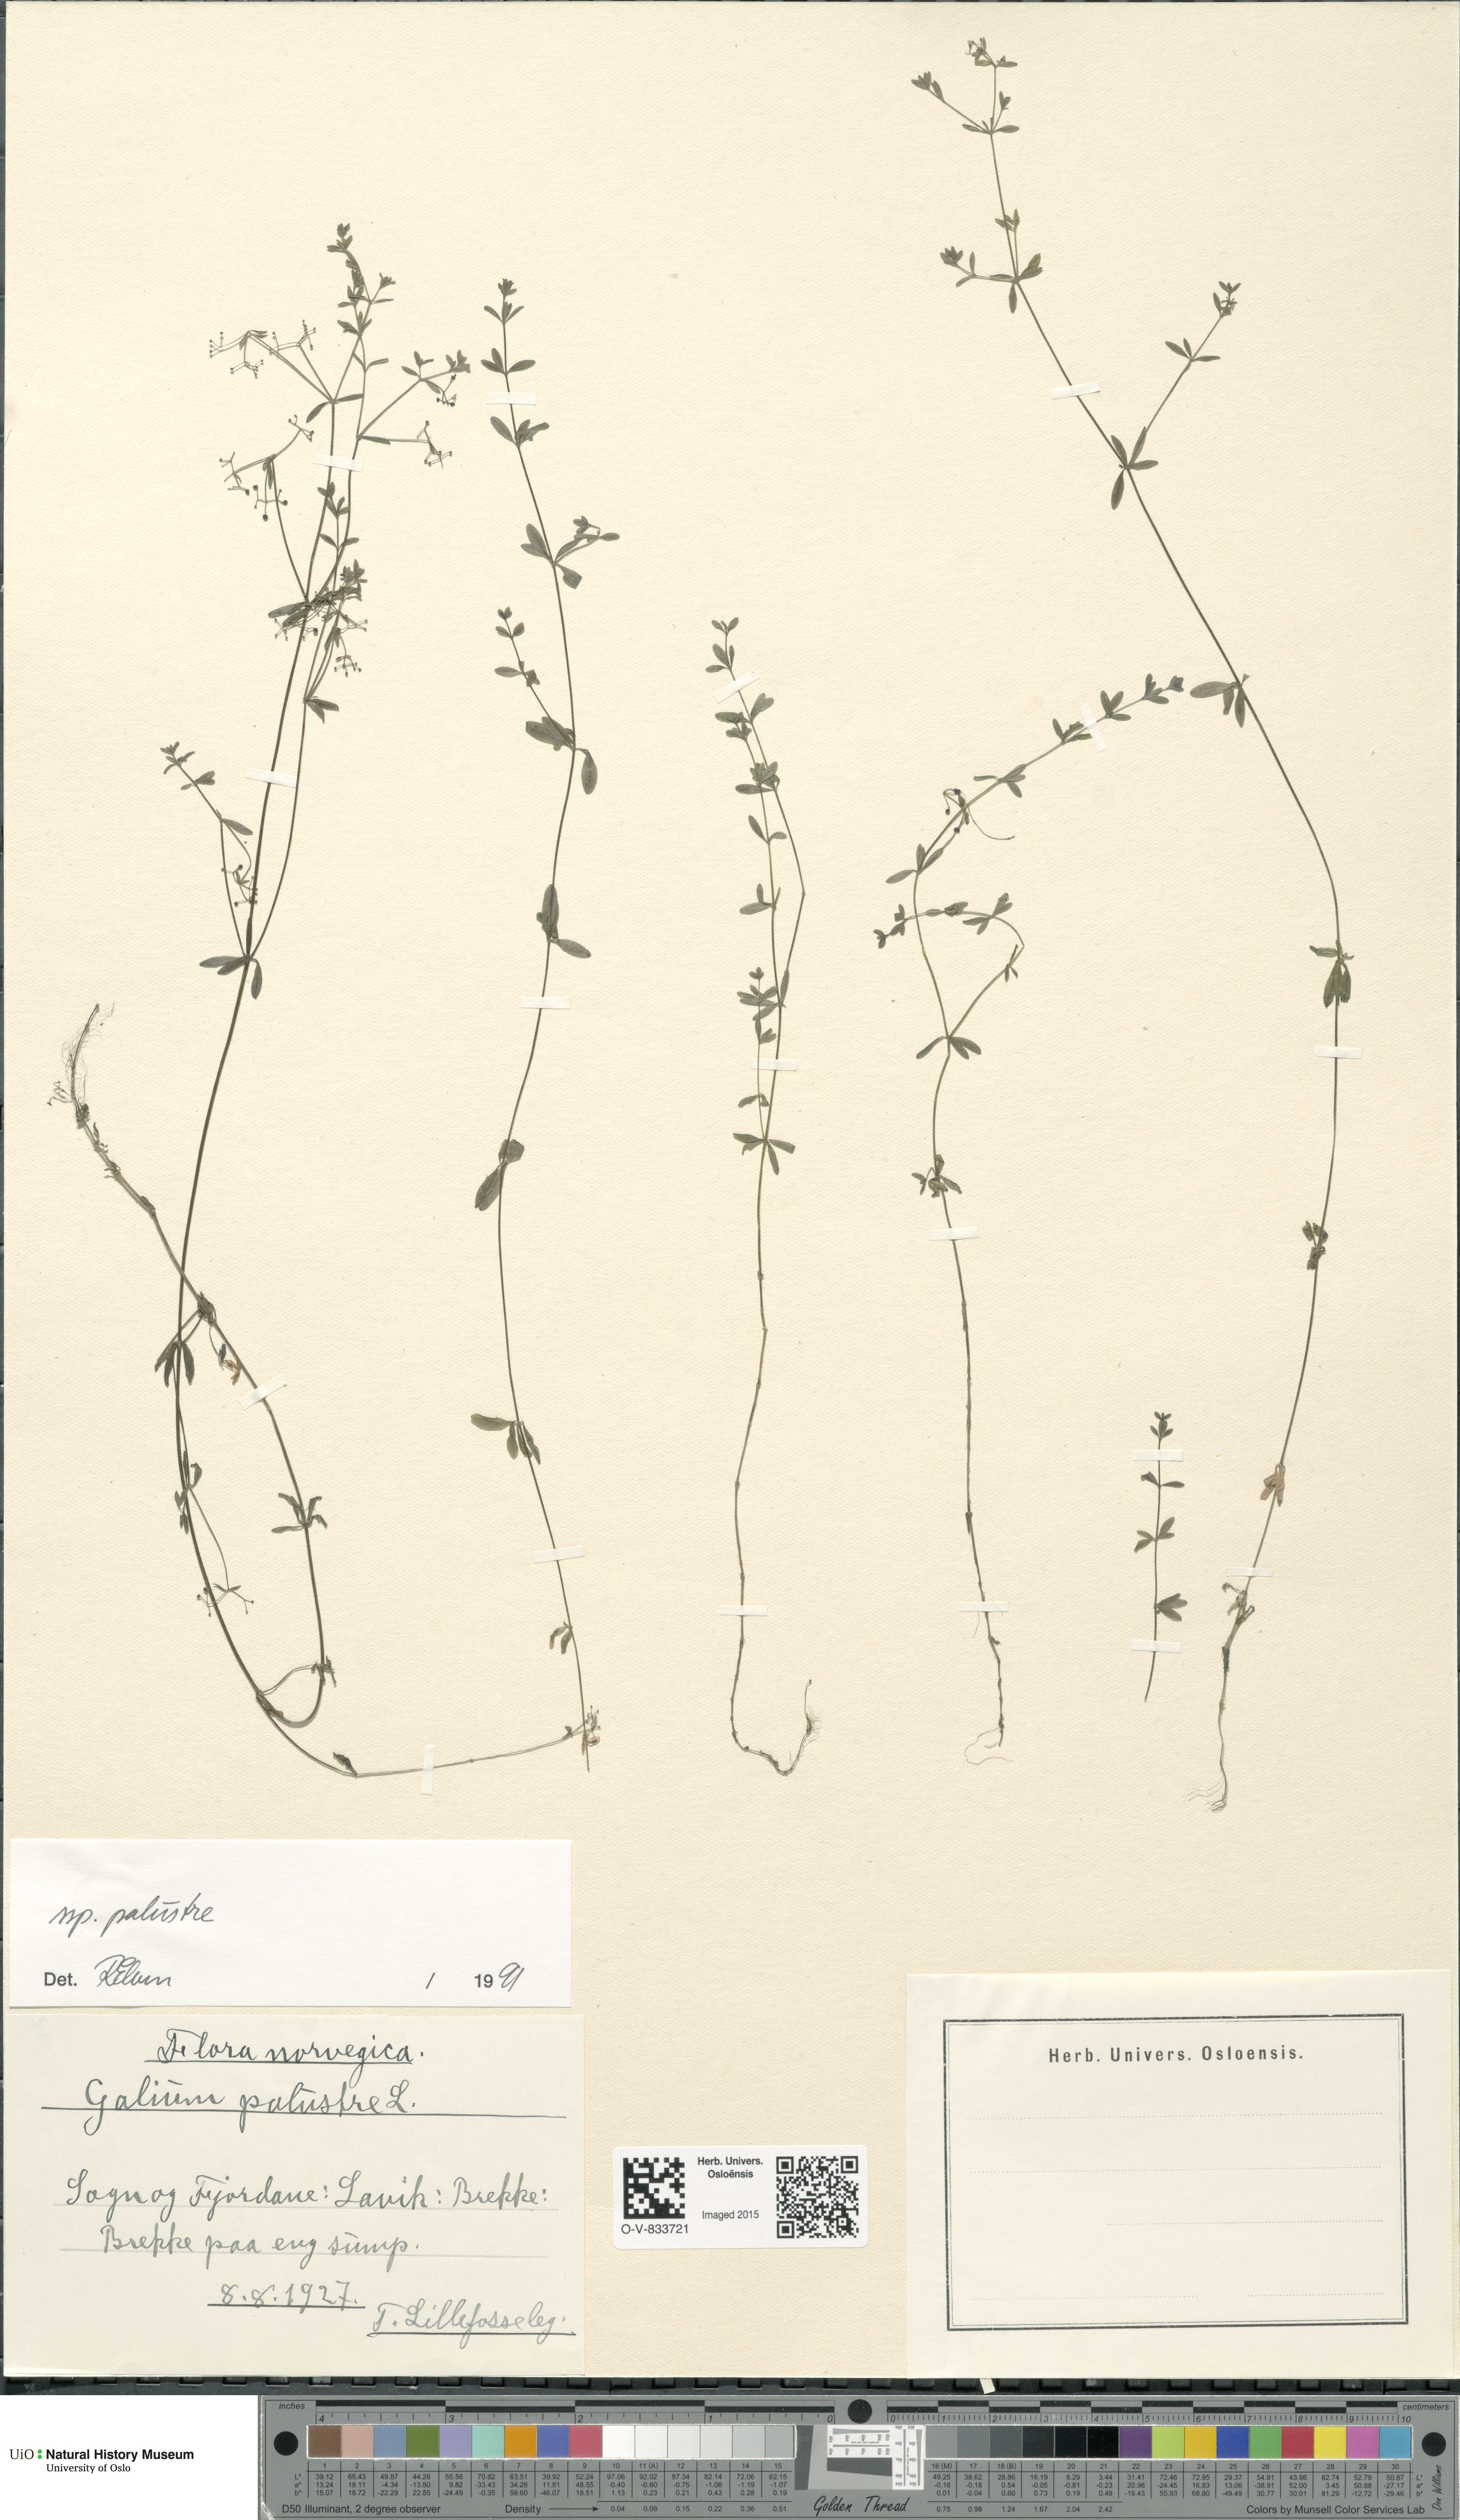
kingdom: Plantae
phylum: Tracheophyta
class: Magnoliopsida
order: Gentianales
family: Rubiaceae
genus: Galium
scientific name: Galium palustre
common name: Common marsh-bedstraw
